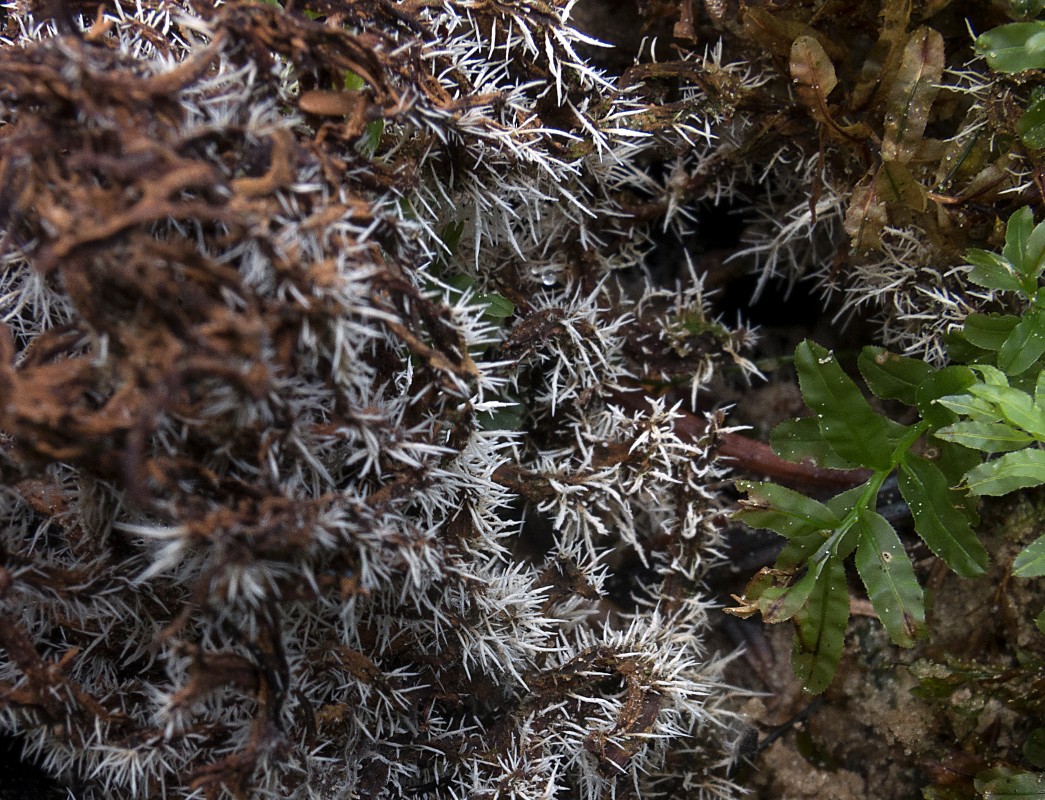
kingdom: Fungi
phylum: Ascomycota
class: Sordariomycetes
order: Hypocreales
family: Tilachlidiaceae
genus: Tilachlidium
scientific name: Tilachlidium brachiatum
